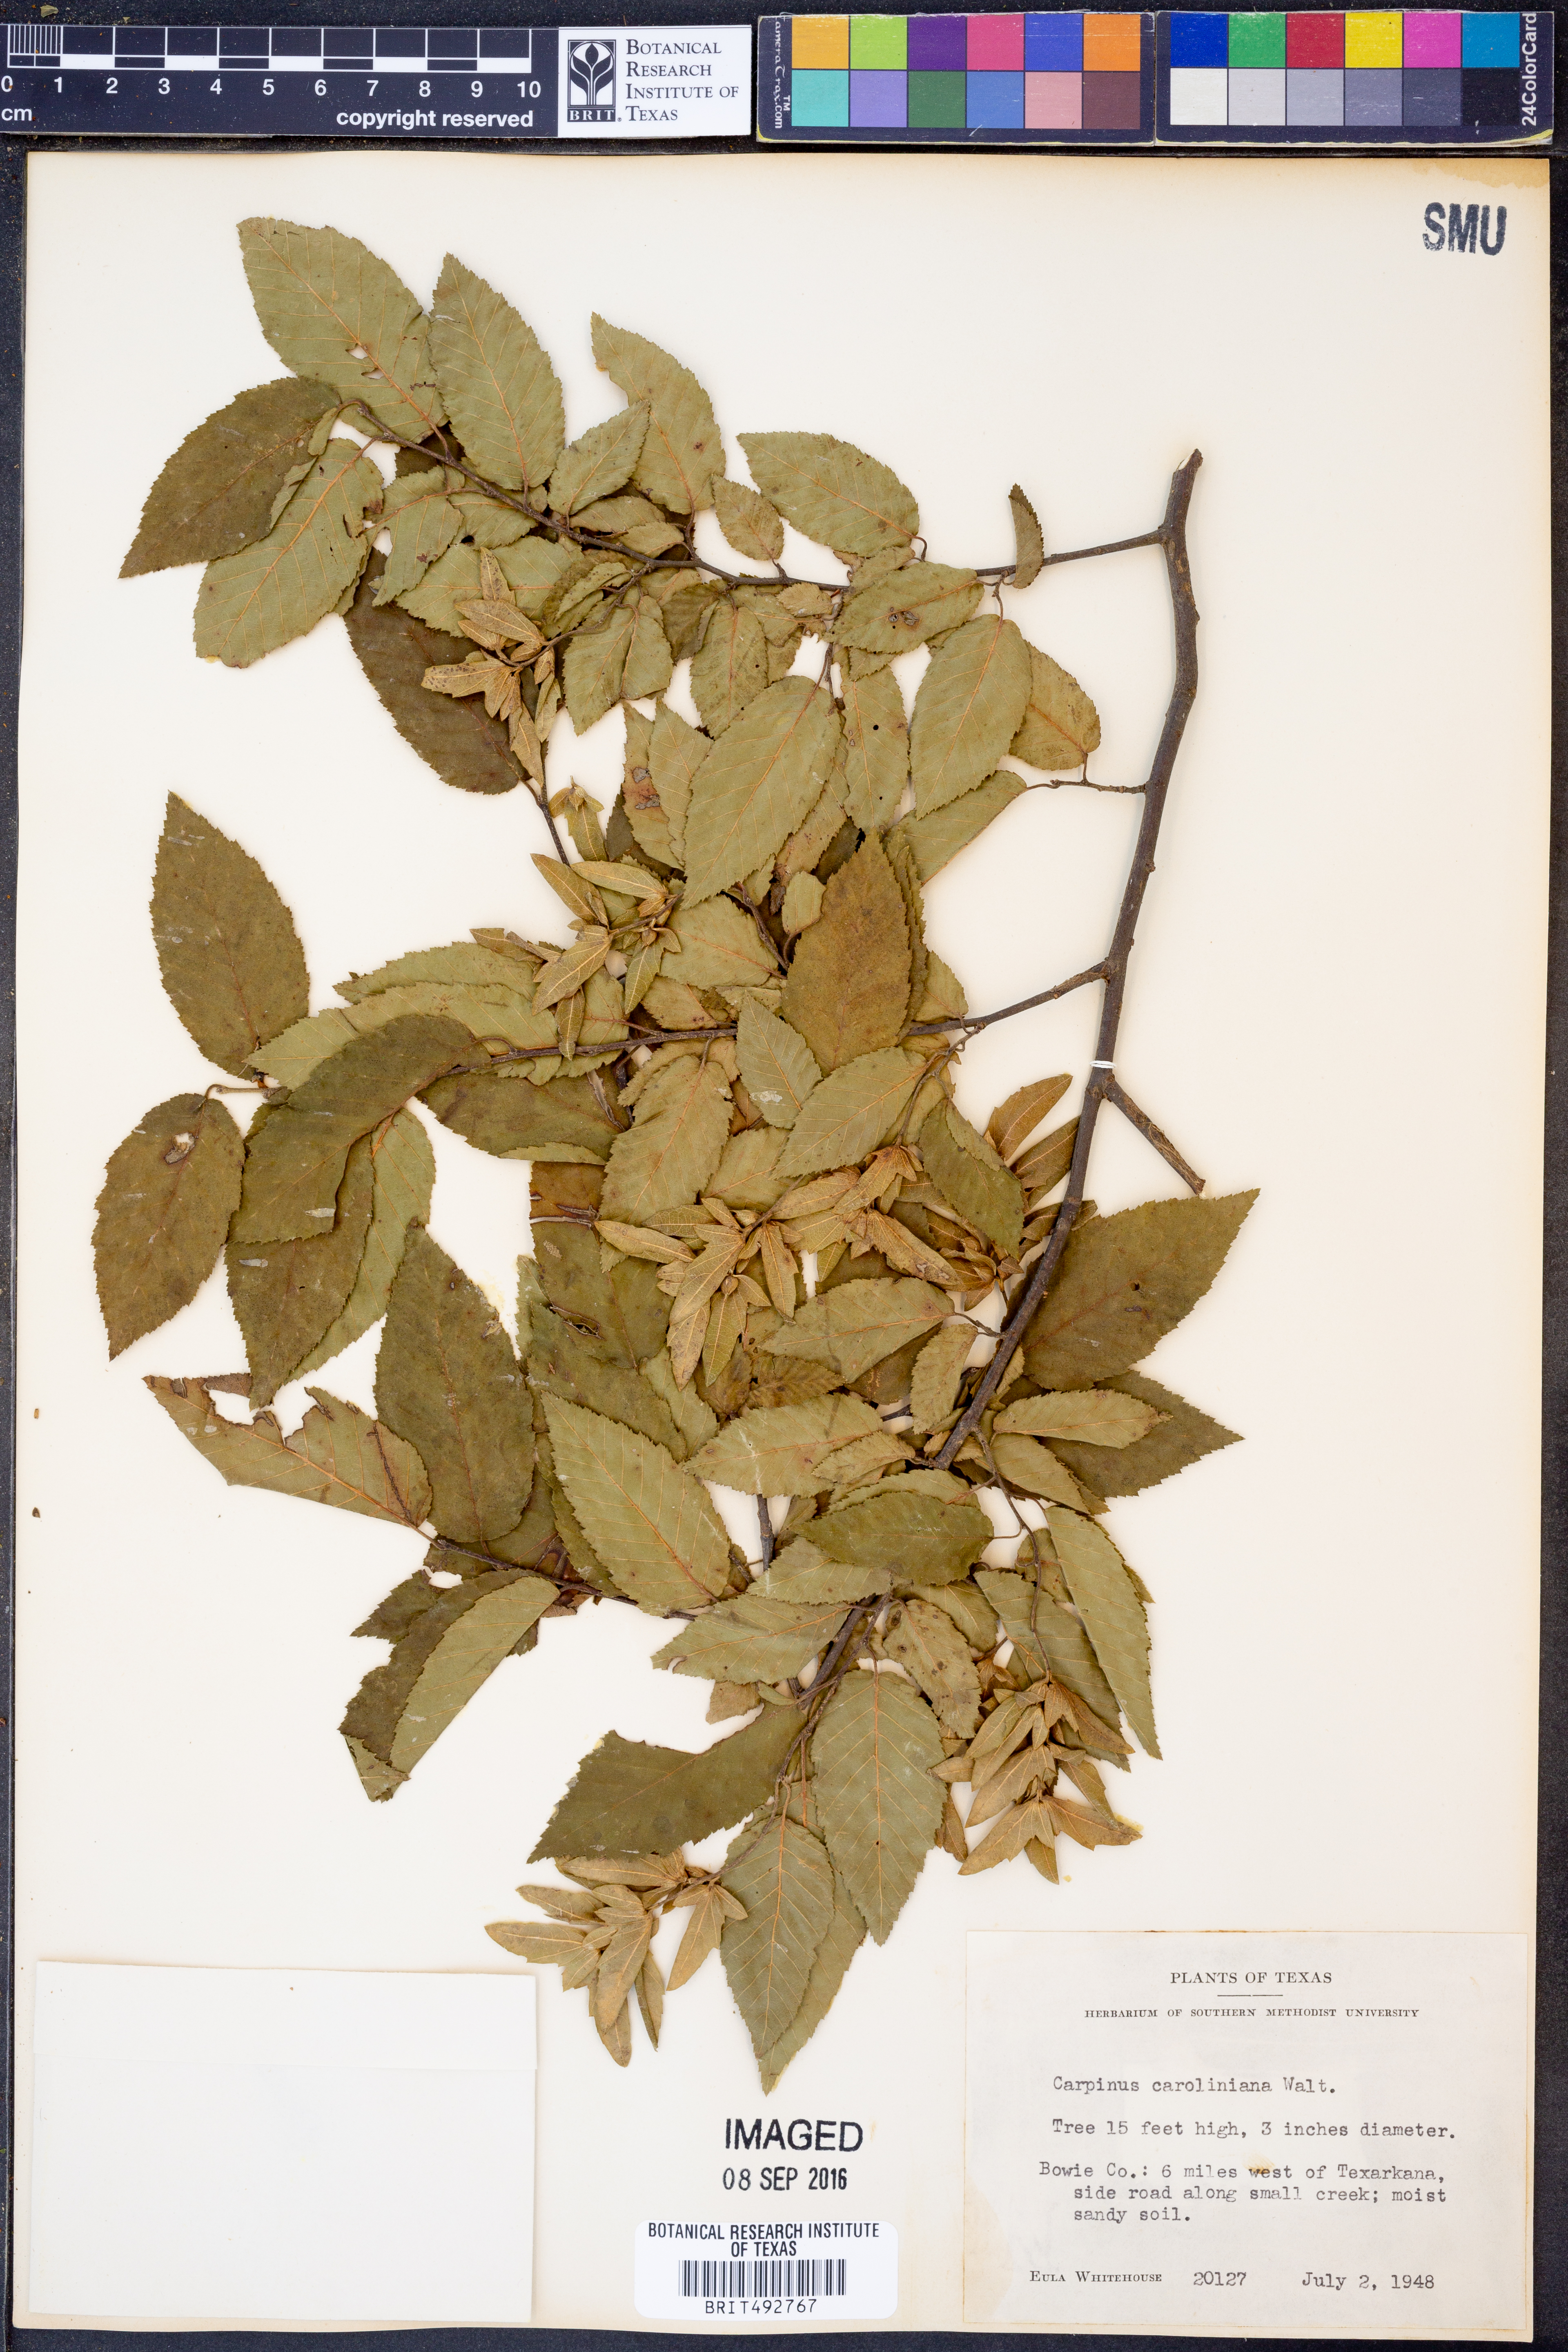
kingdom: Plantae
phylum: Tracheophyta
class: Magnoliopsida
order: Fagales
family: Betulaceae
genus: Carpinus
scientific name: Carpinus caroliniana
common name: American hornbeam
